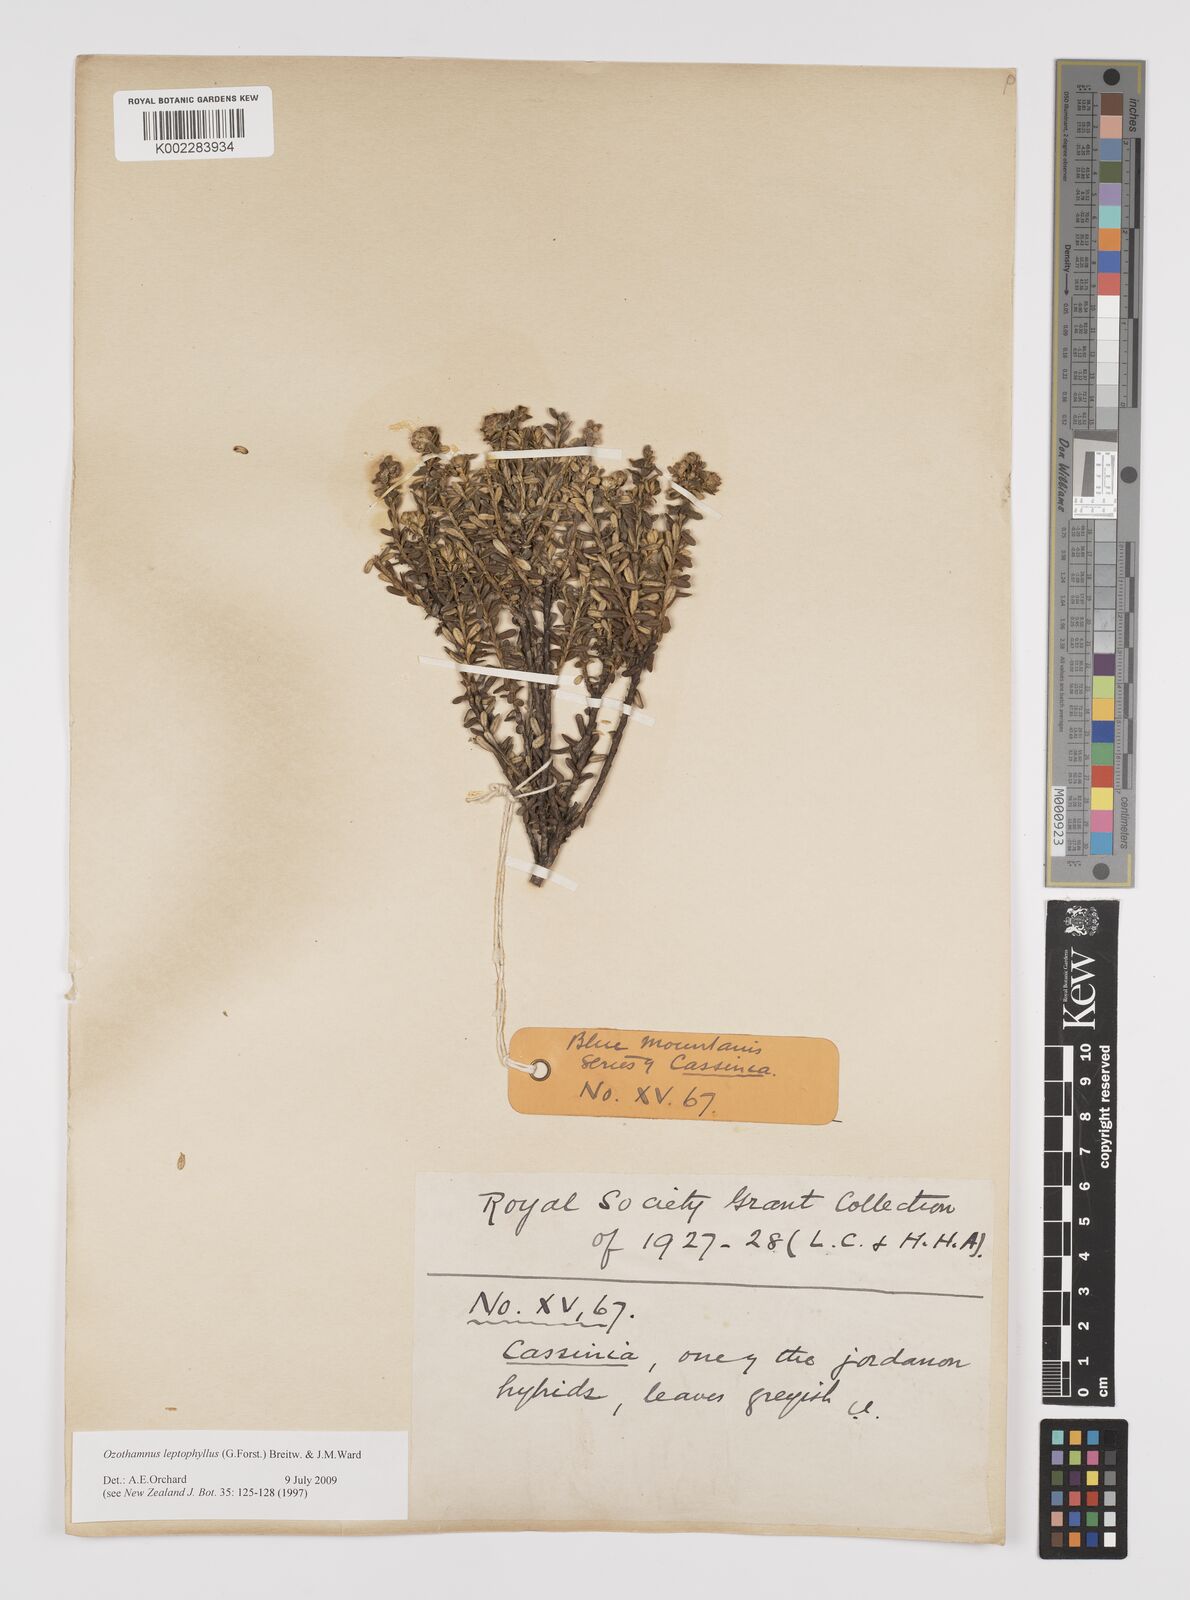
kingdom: Plantae
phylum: Tracheophyta
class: Magnoliopsida
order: Asterales
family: Asteraceae
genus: Ozothamnus
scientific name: Ozothamnus leptophyllus
